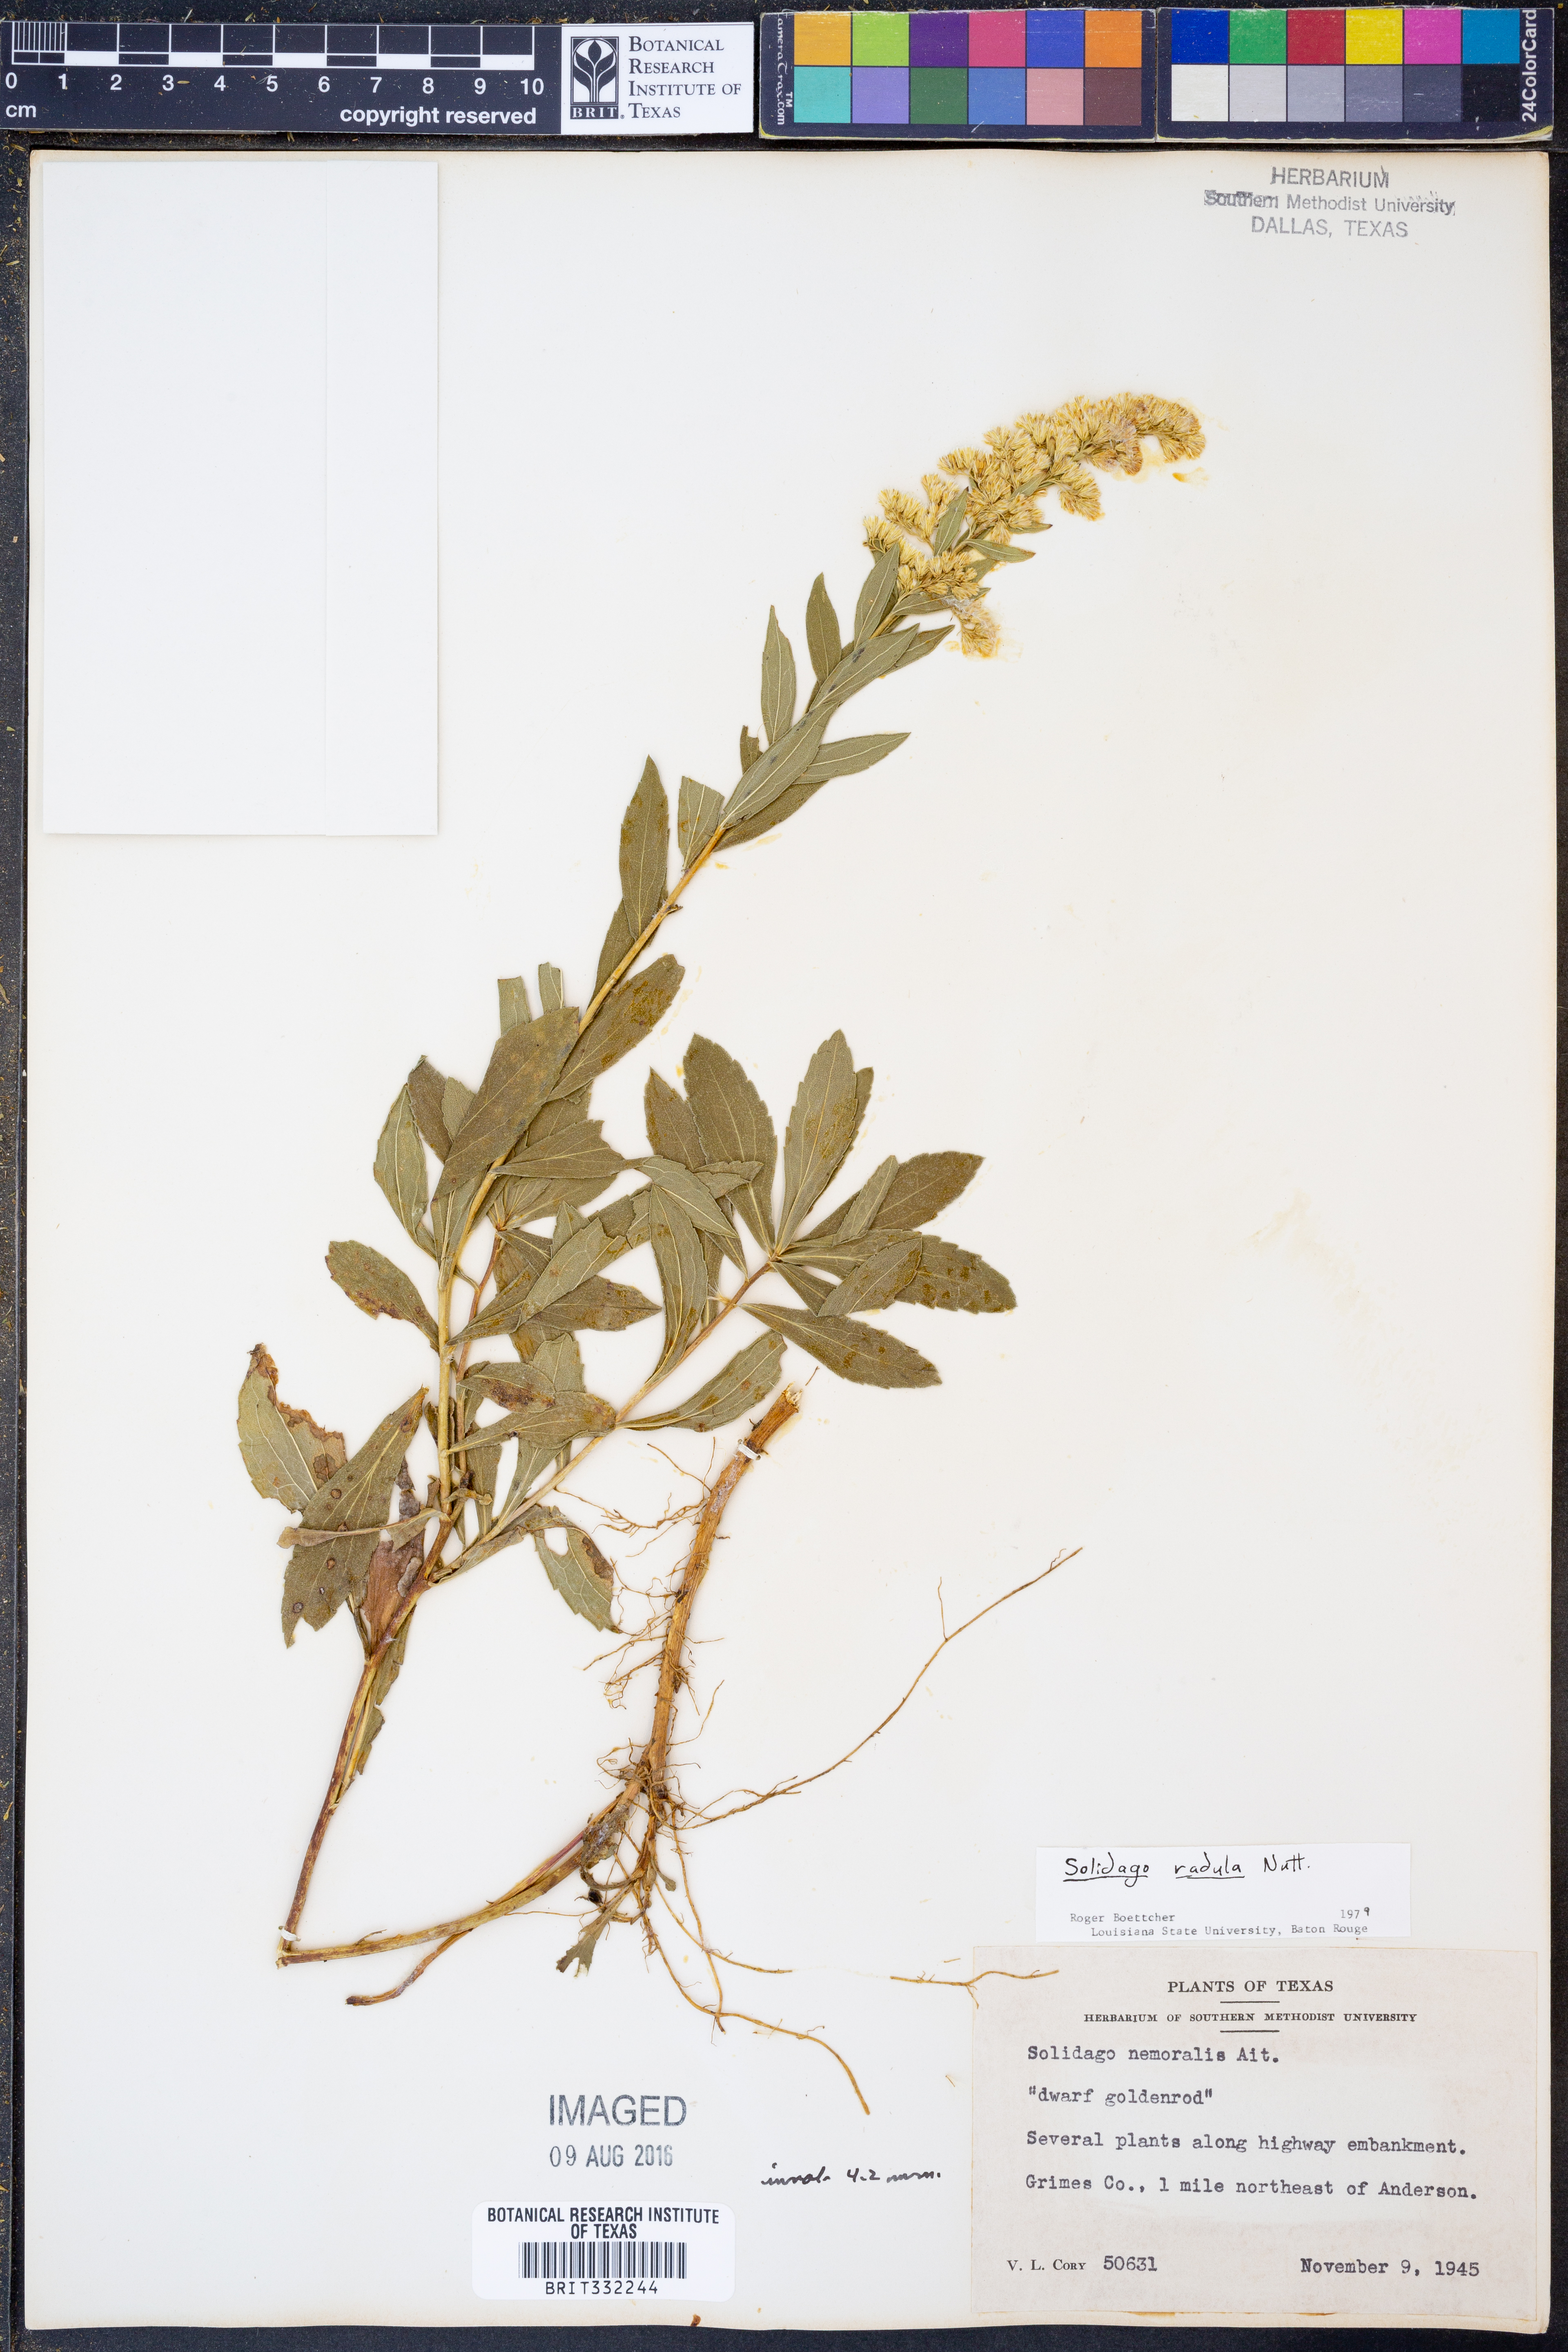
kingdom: Plantae
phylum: Tracheophyta
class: Magnoliopsida
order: Asterales
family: Asteraceae
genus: Solidago
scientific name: Solidago radula
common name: Western rough goldenrod
